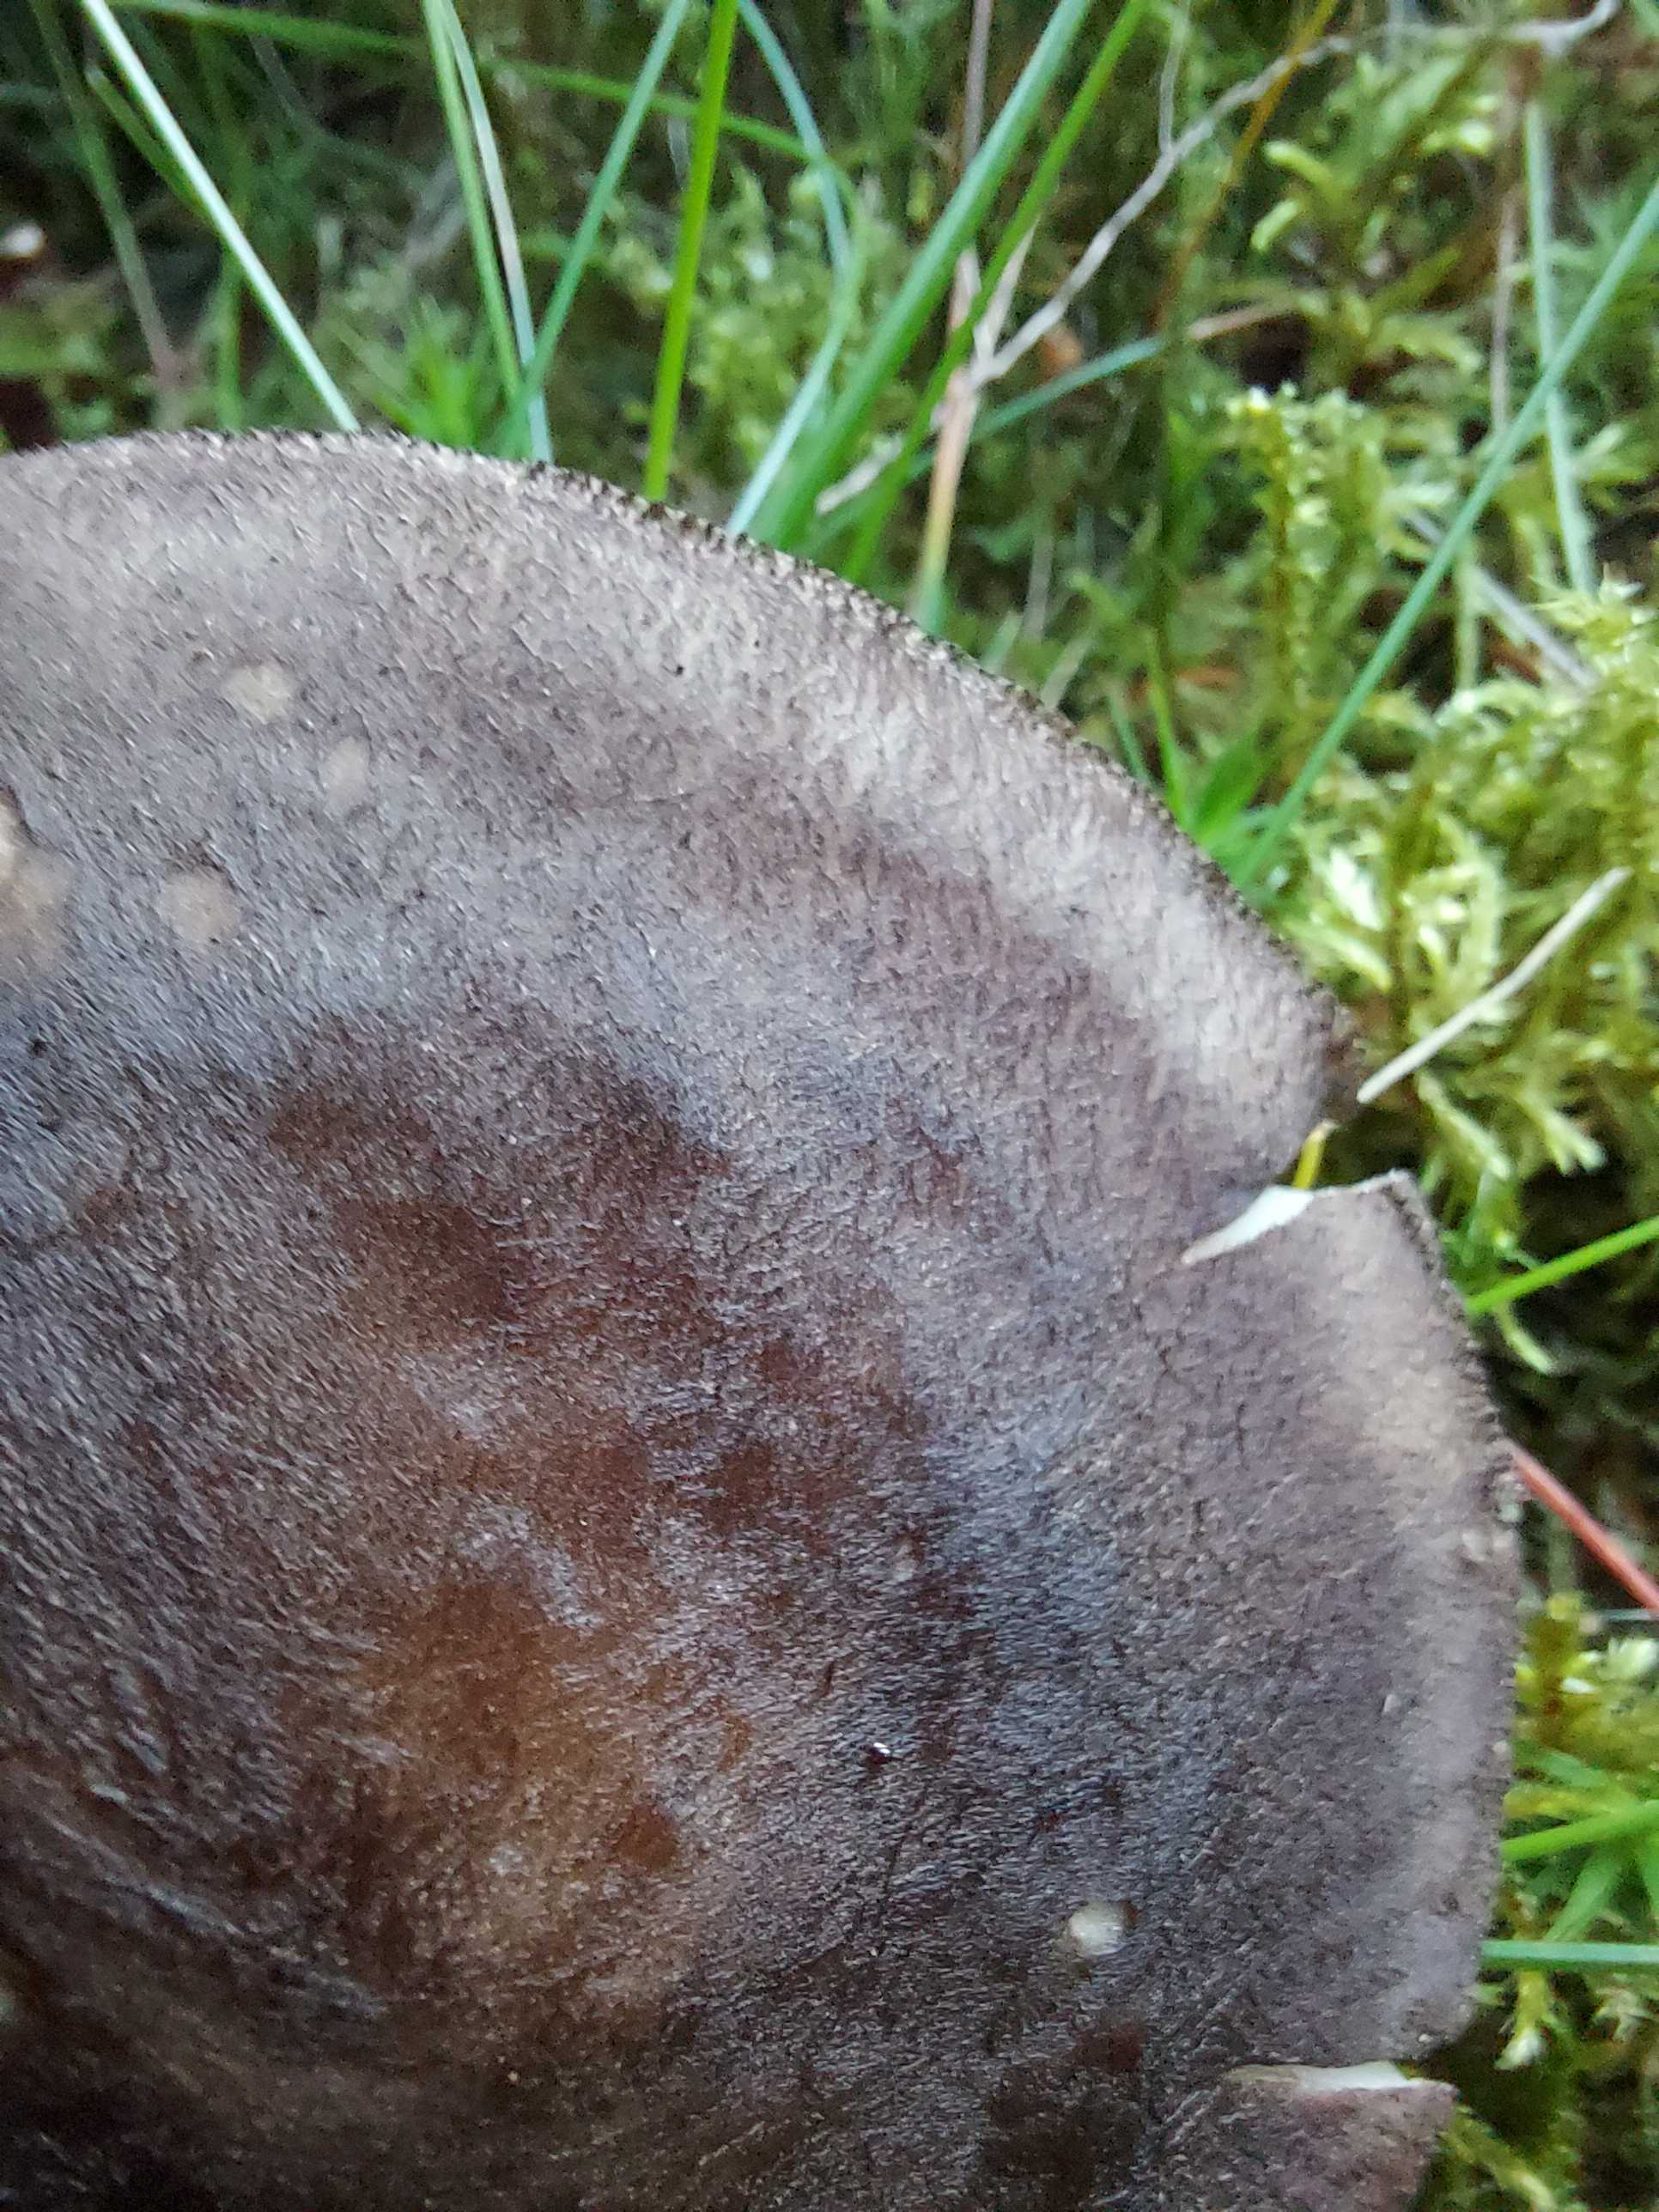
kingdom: Fungi
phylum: Basidiomycota
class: Agaricomycetes
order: Agaricales
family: Pluteaceae
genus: Pluteus
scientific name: Pluteus atromarginatus
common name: sortrandet skærmhat
